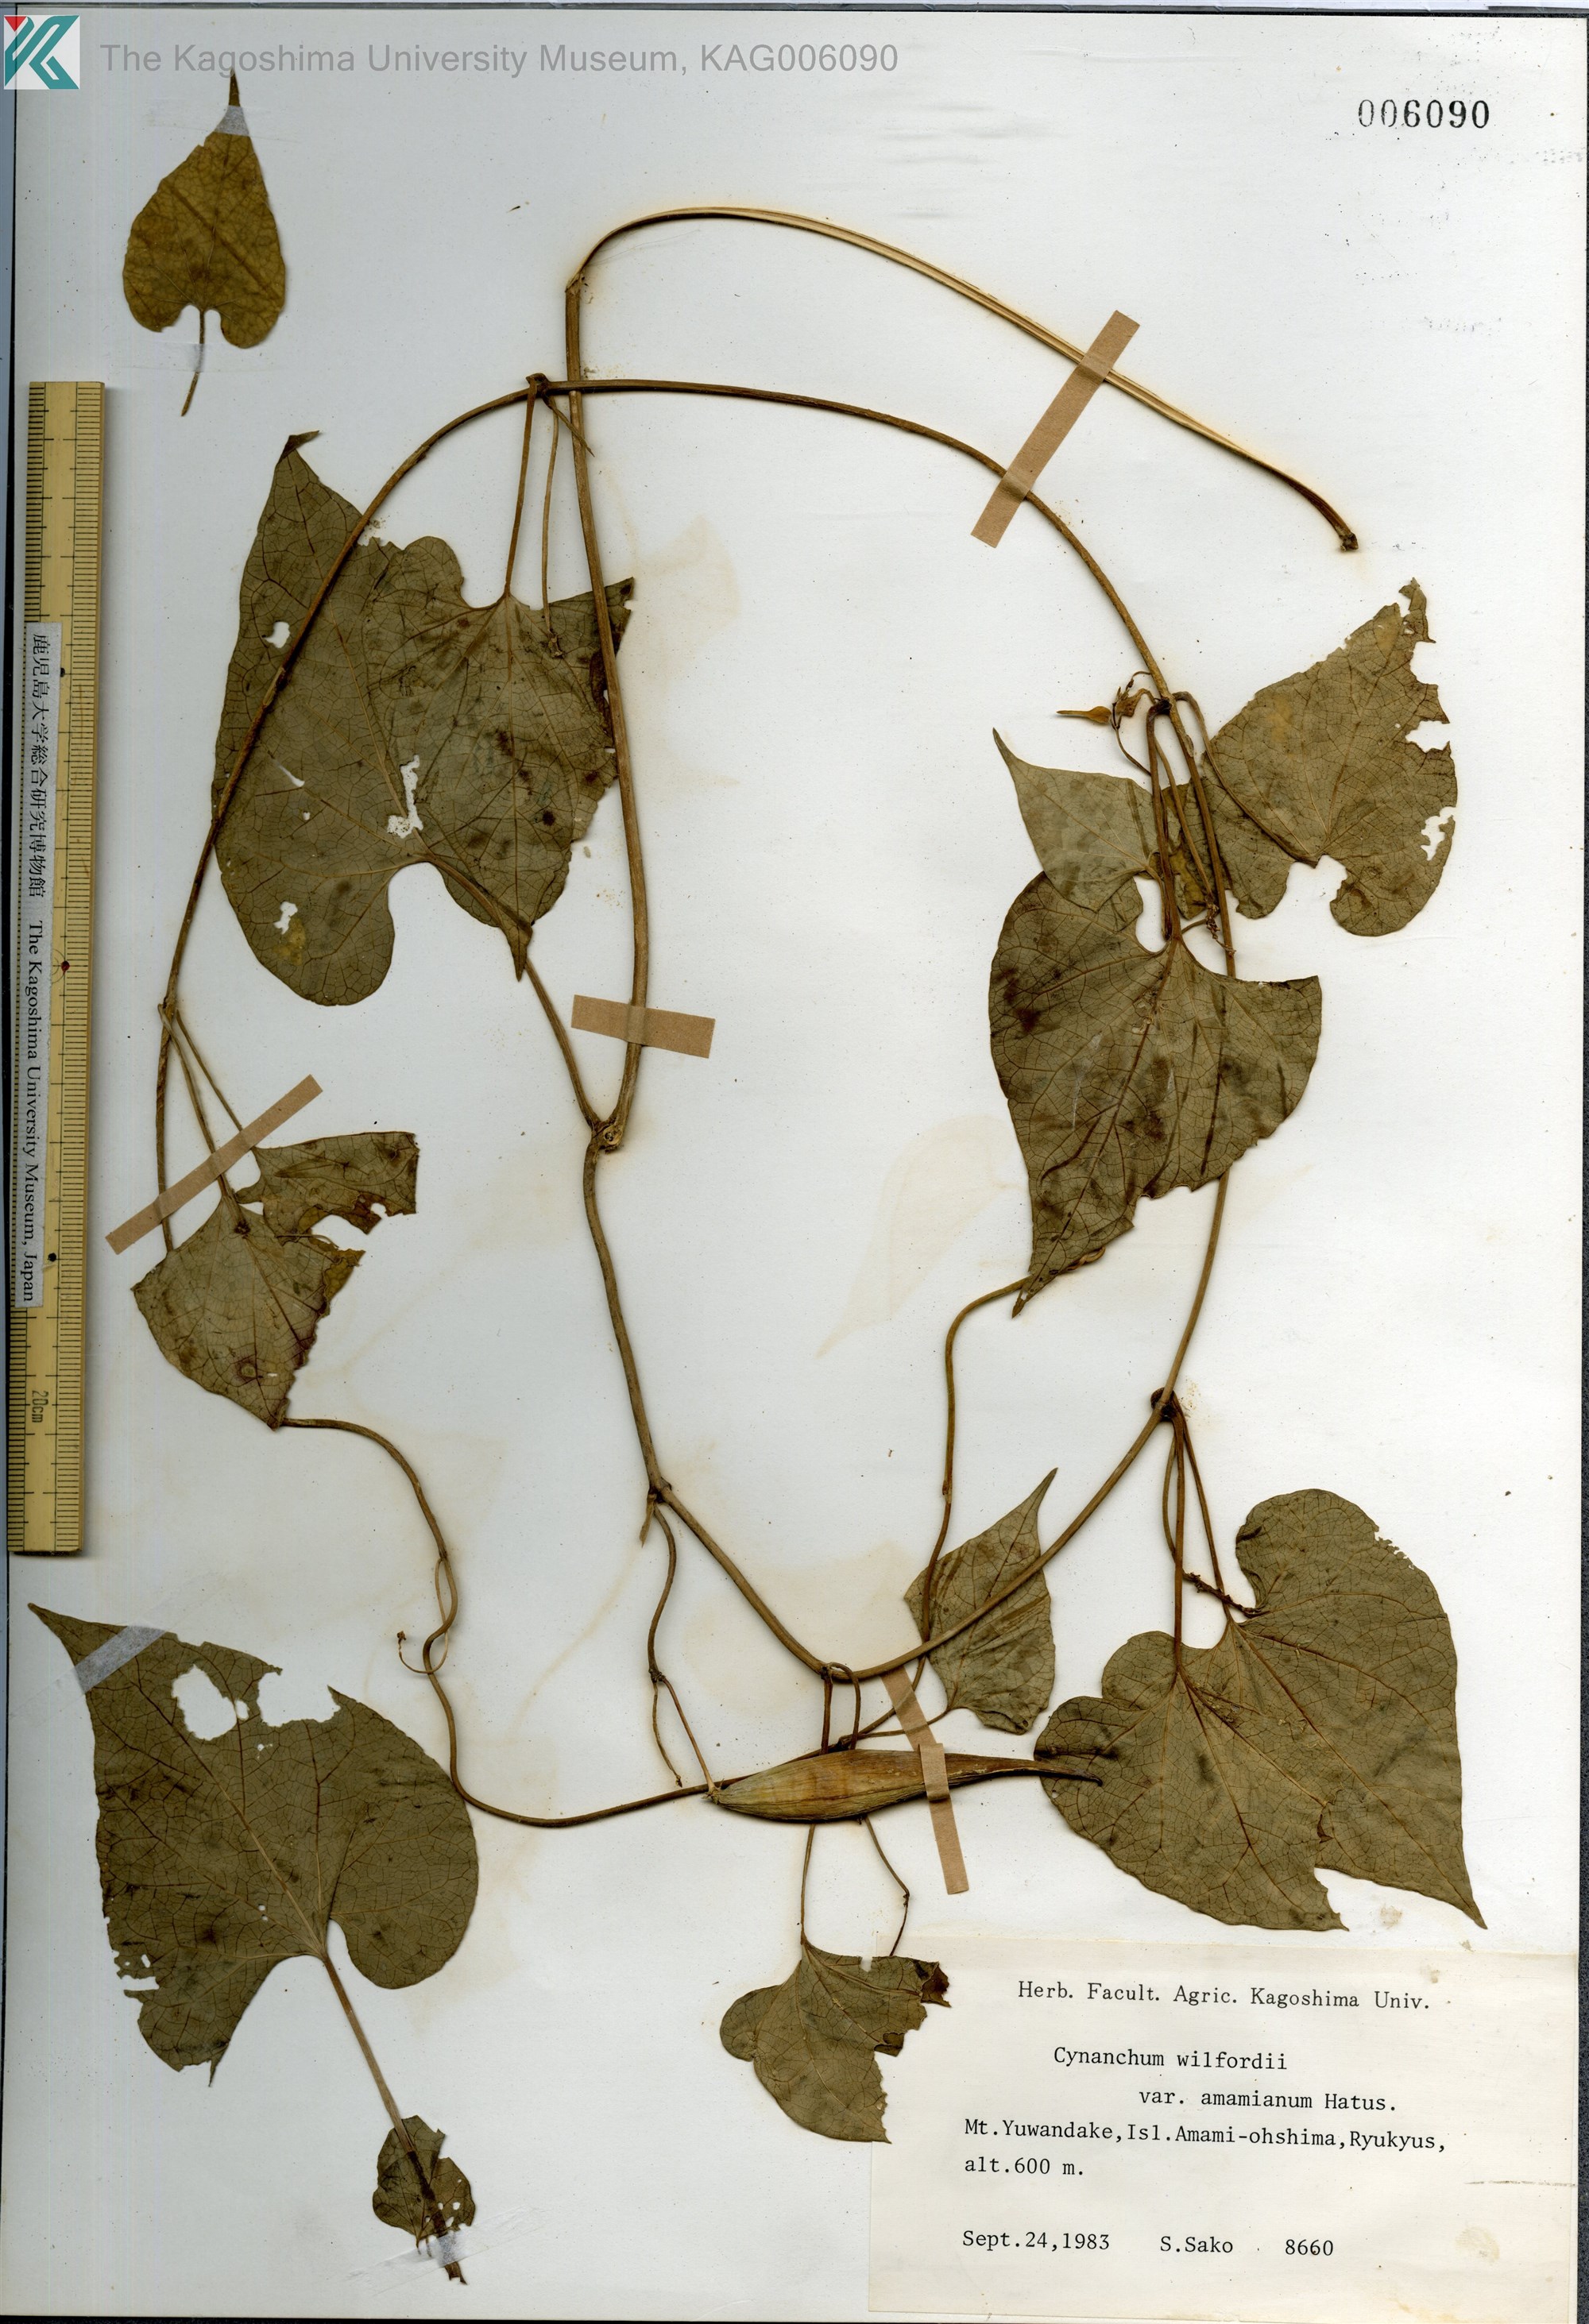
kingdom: Plantae
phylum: Tracheophyta
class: Magnoliopsida
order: Gentianales
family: Apocynaceae
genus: Cynanchum
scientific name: Cynanchum boudieri
